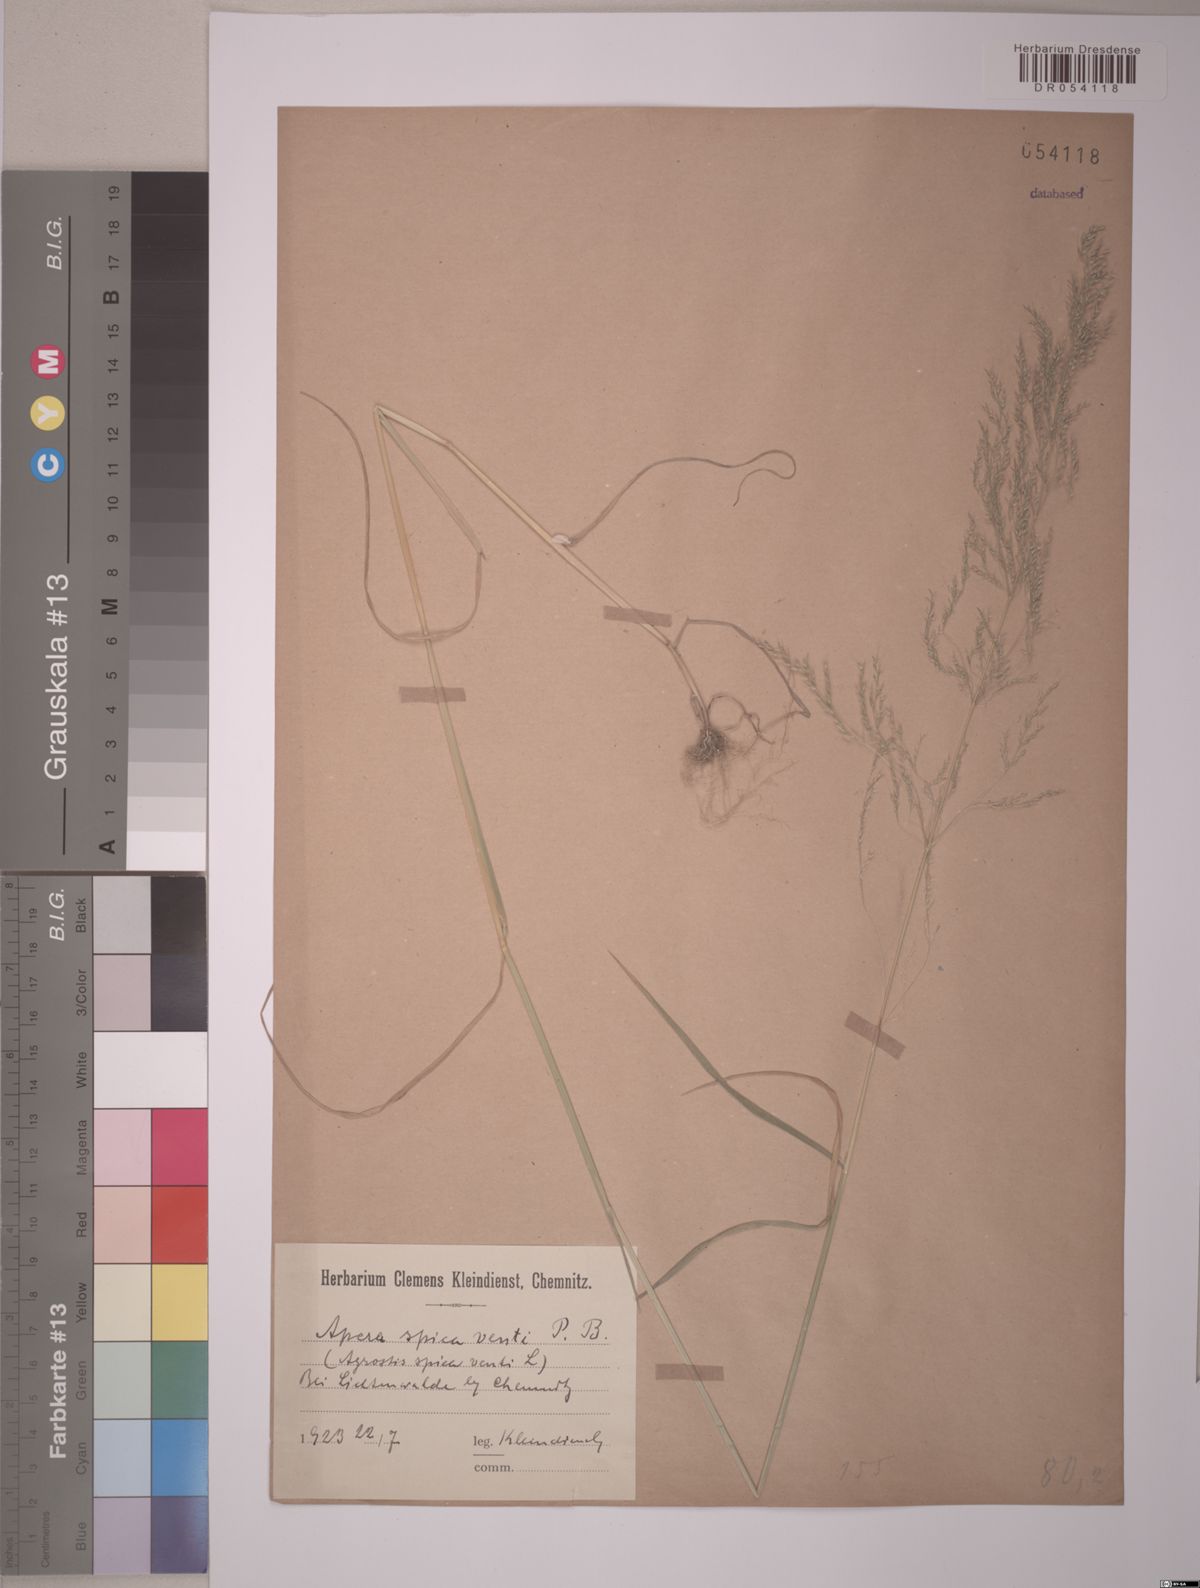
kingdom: Plantae
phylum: Tracheophyta
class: Liliopsida
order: Poales
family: Poaceae
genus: Apera
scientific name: Apera spica-venti
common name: Loose silky-bent
